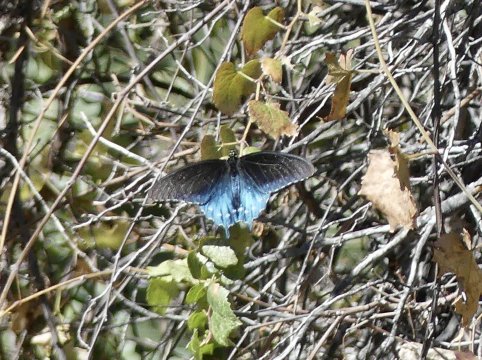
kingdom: Animalia
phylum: Arthropoda
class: Insecta
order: Lepidoptera
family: Papilionidae
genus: Battus
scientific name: Battus philenor
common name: Pipevine Swallowtail
